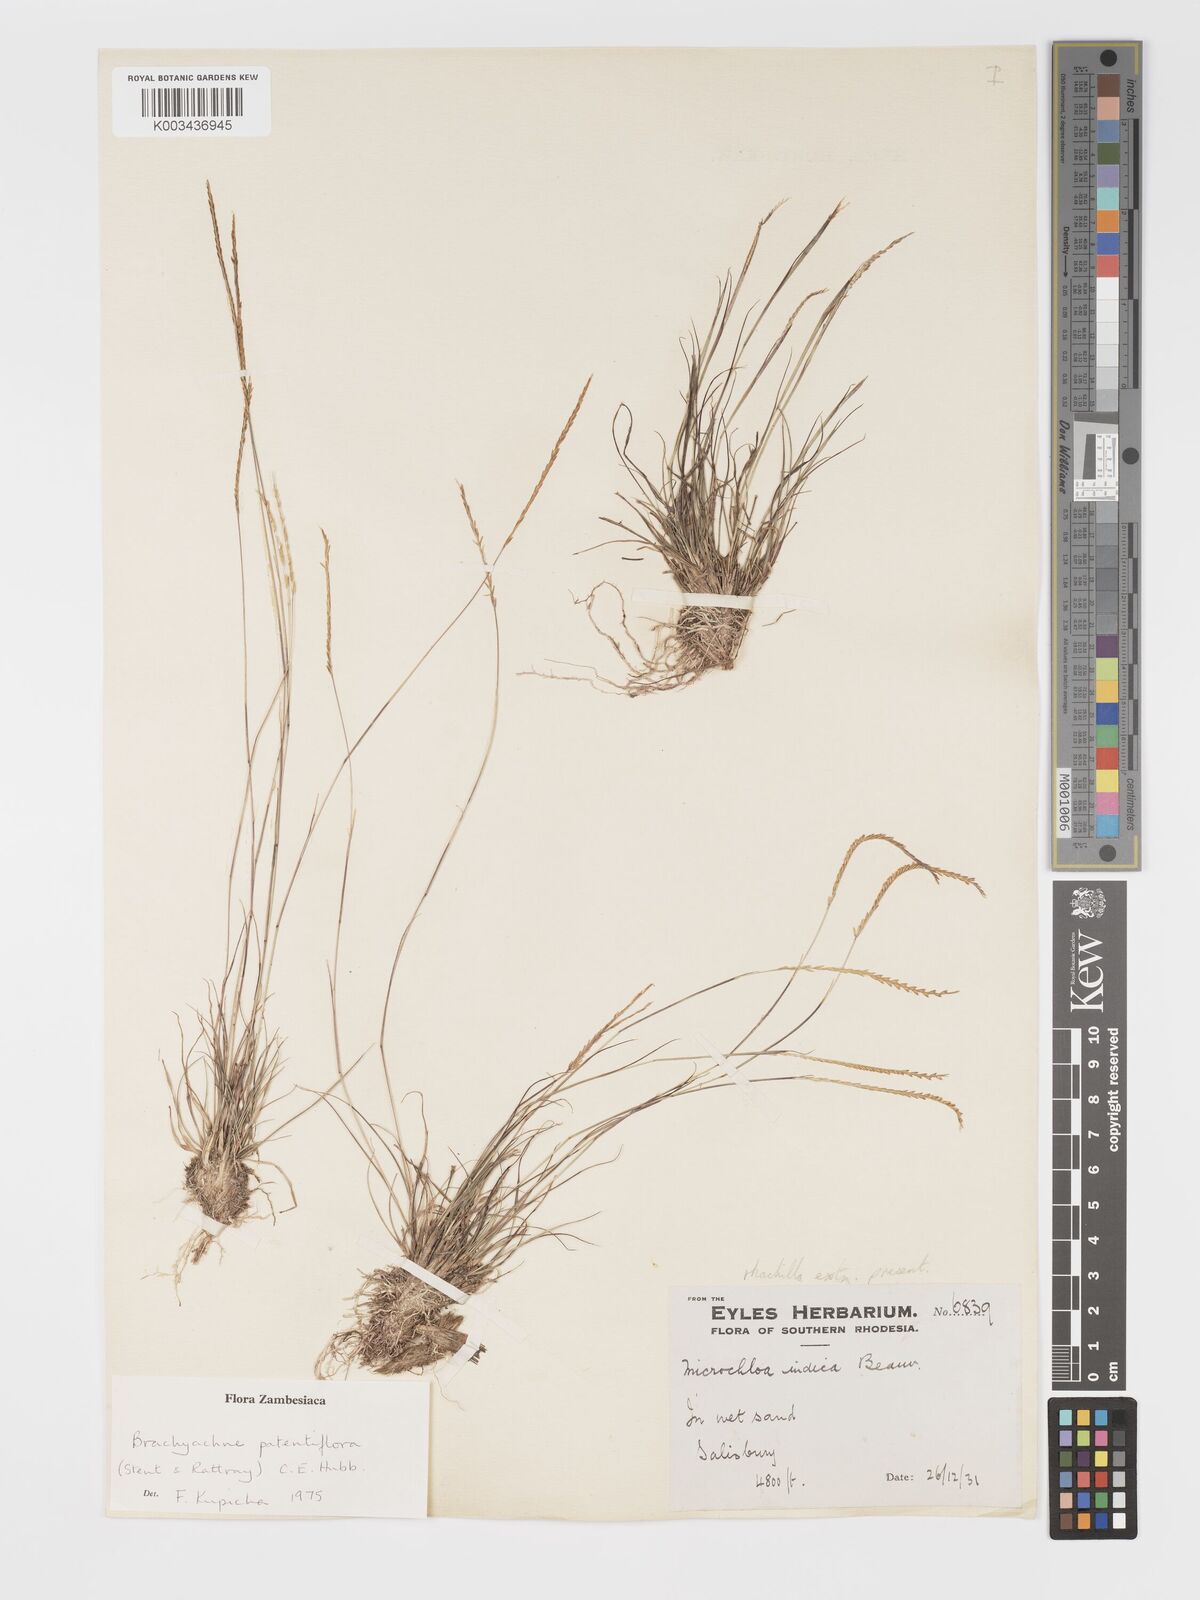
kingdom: Plantae
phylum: Tracheophyta
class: Liliopsida
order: Poales
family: Poaceae
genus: Micrachne
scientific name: Micrachne patentiflora
